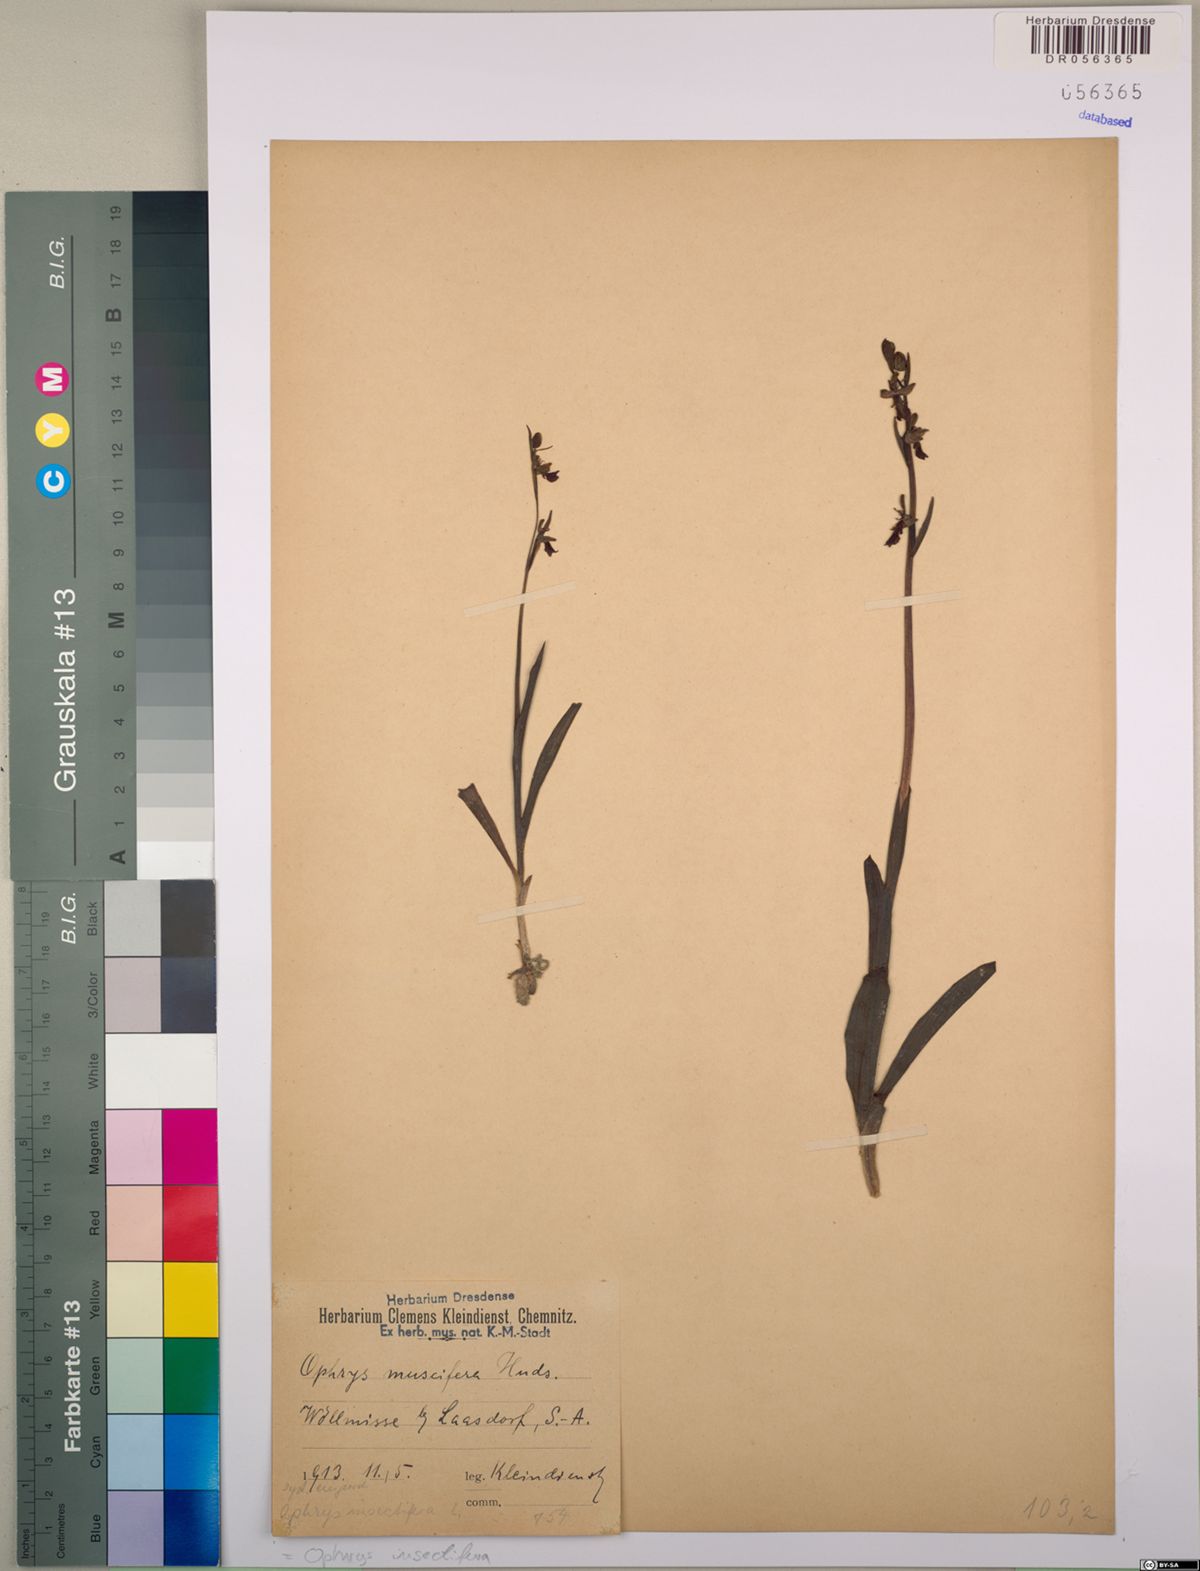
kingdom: Plantae
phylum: Tracheophyta
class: Liliopsida
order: Asparagales
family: Orchidaceae
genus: Ophrys
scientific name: Ophrys insectifera
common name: Fly orchid
